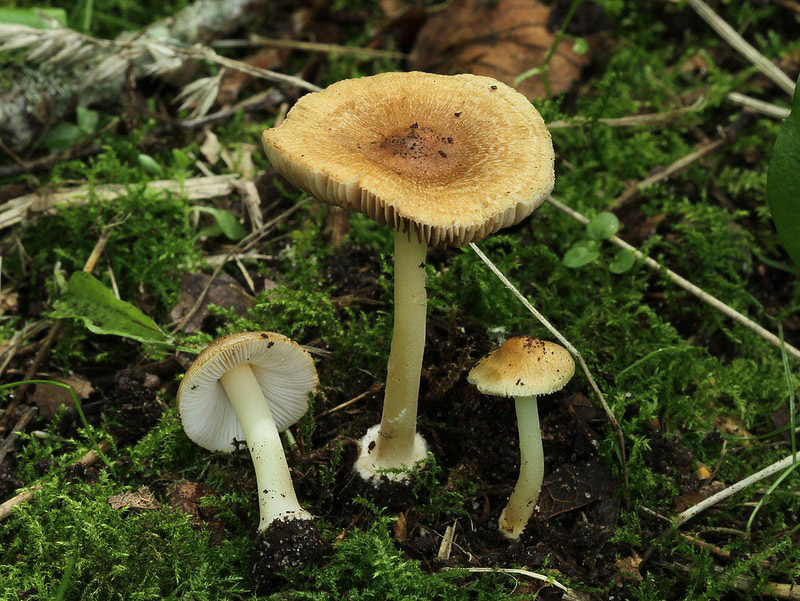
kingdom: Fungi
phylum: Basidiomycota
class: Agaricomycetes
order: Agaricales
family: Inocybaceae
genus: Inocybe
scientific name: Inocybe mixtilis
